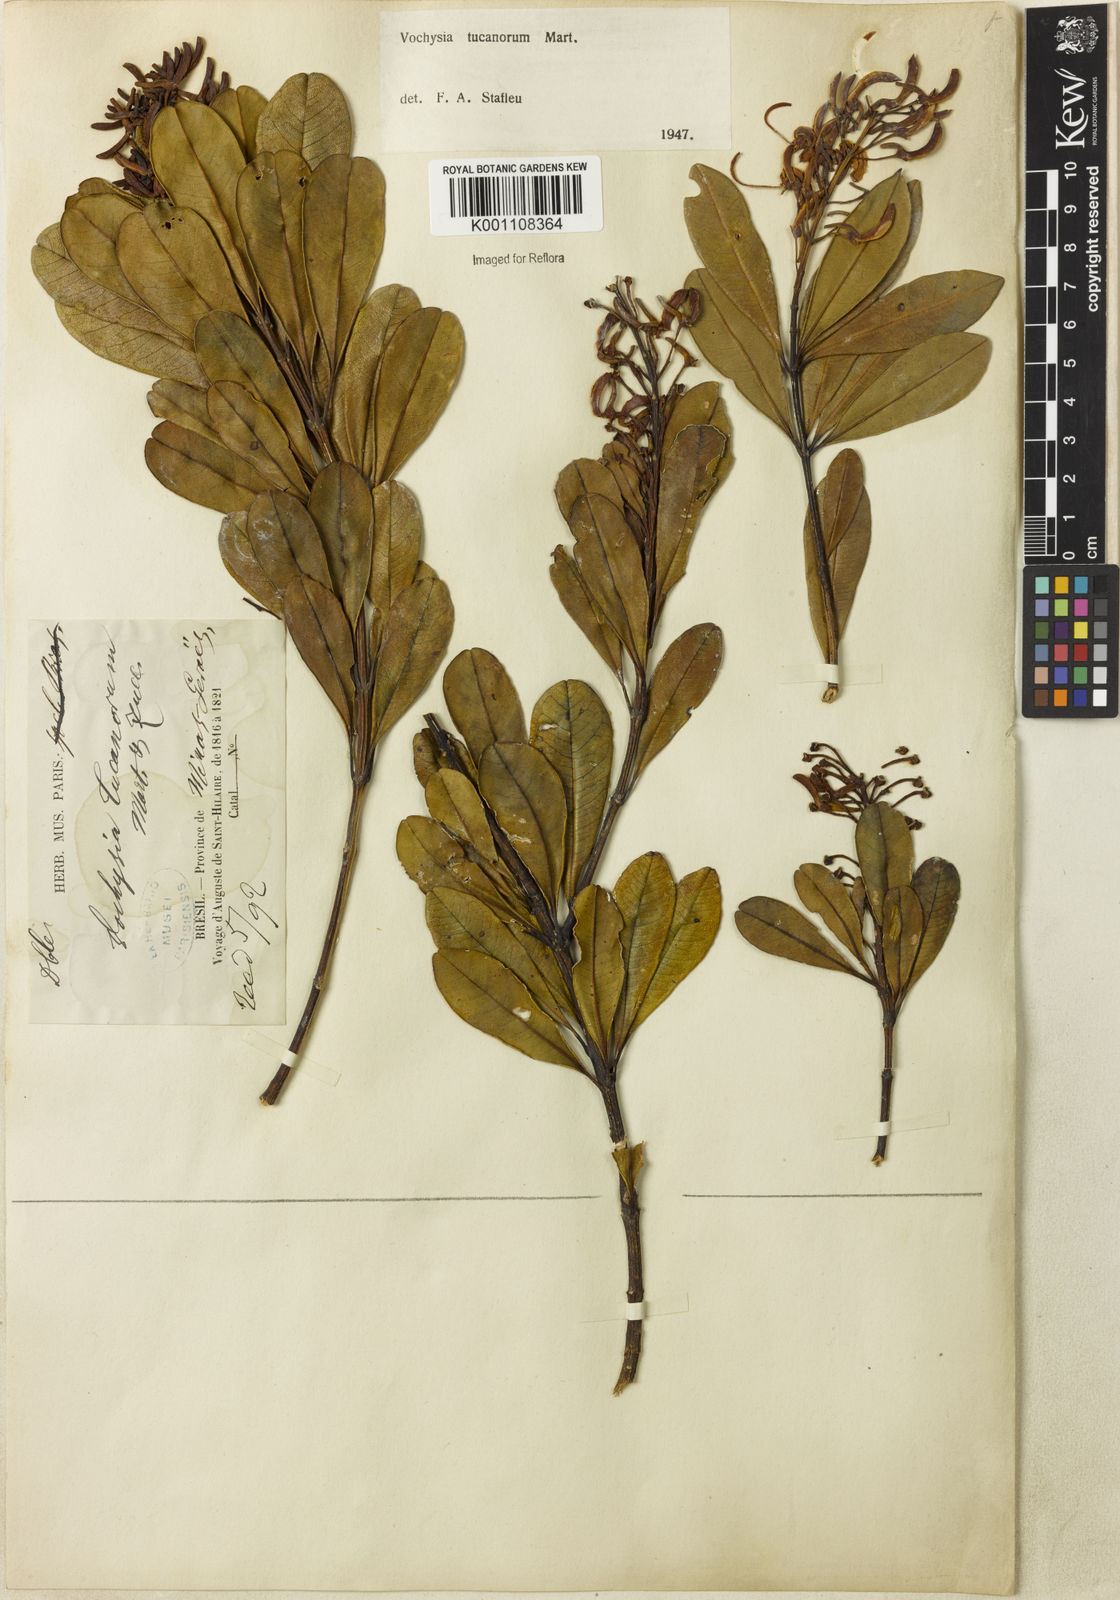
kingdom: Plantae
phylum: Tracheophyta
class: Magnoliopsida
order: Myrtales
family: Vochysiaceae
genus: Vochysia
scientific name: Vochysia tucanorum
